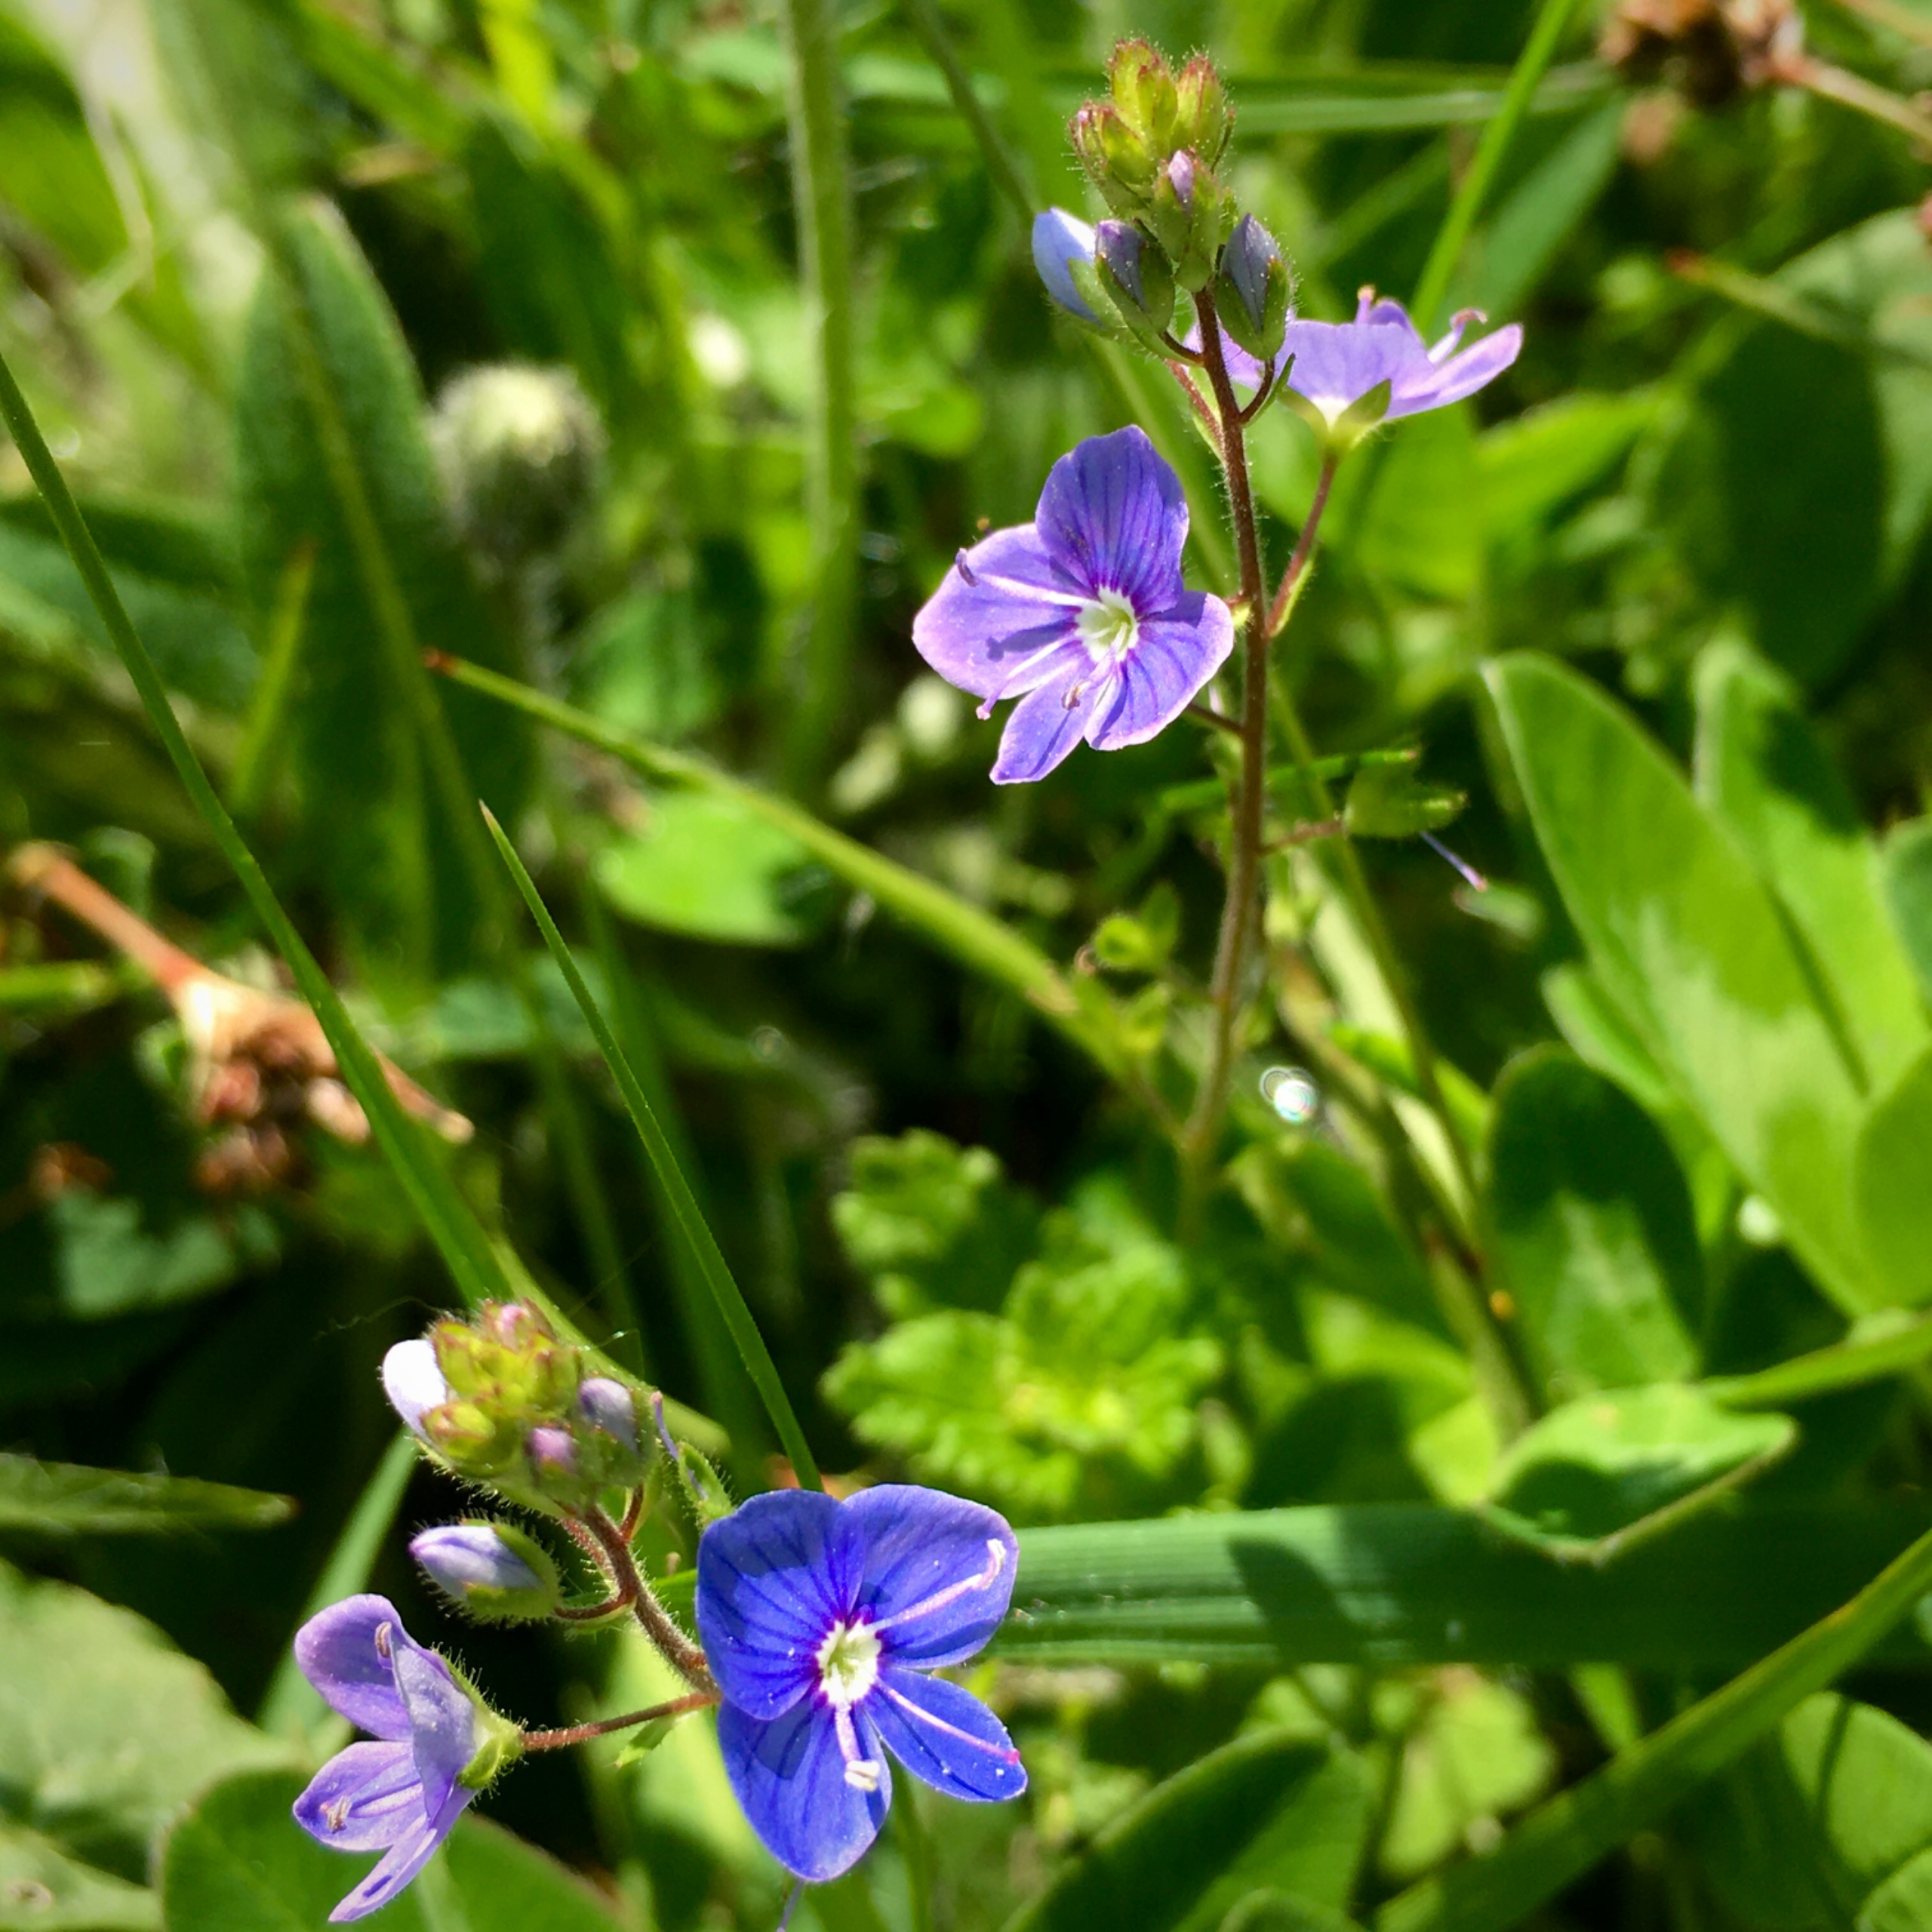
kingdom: Plantae
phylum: Tracheophyta
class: Magnoliopsida
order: Lamiales
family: Plantaginaceae
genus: Veronica
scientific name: Veronica chamaedrys
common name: Tveskægget ærenpris
